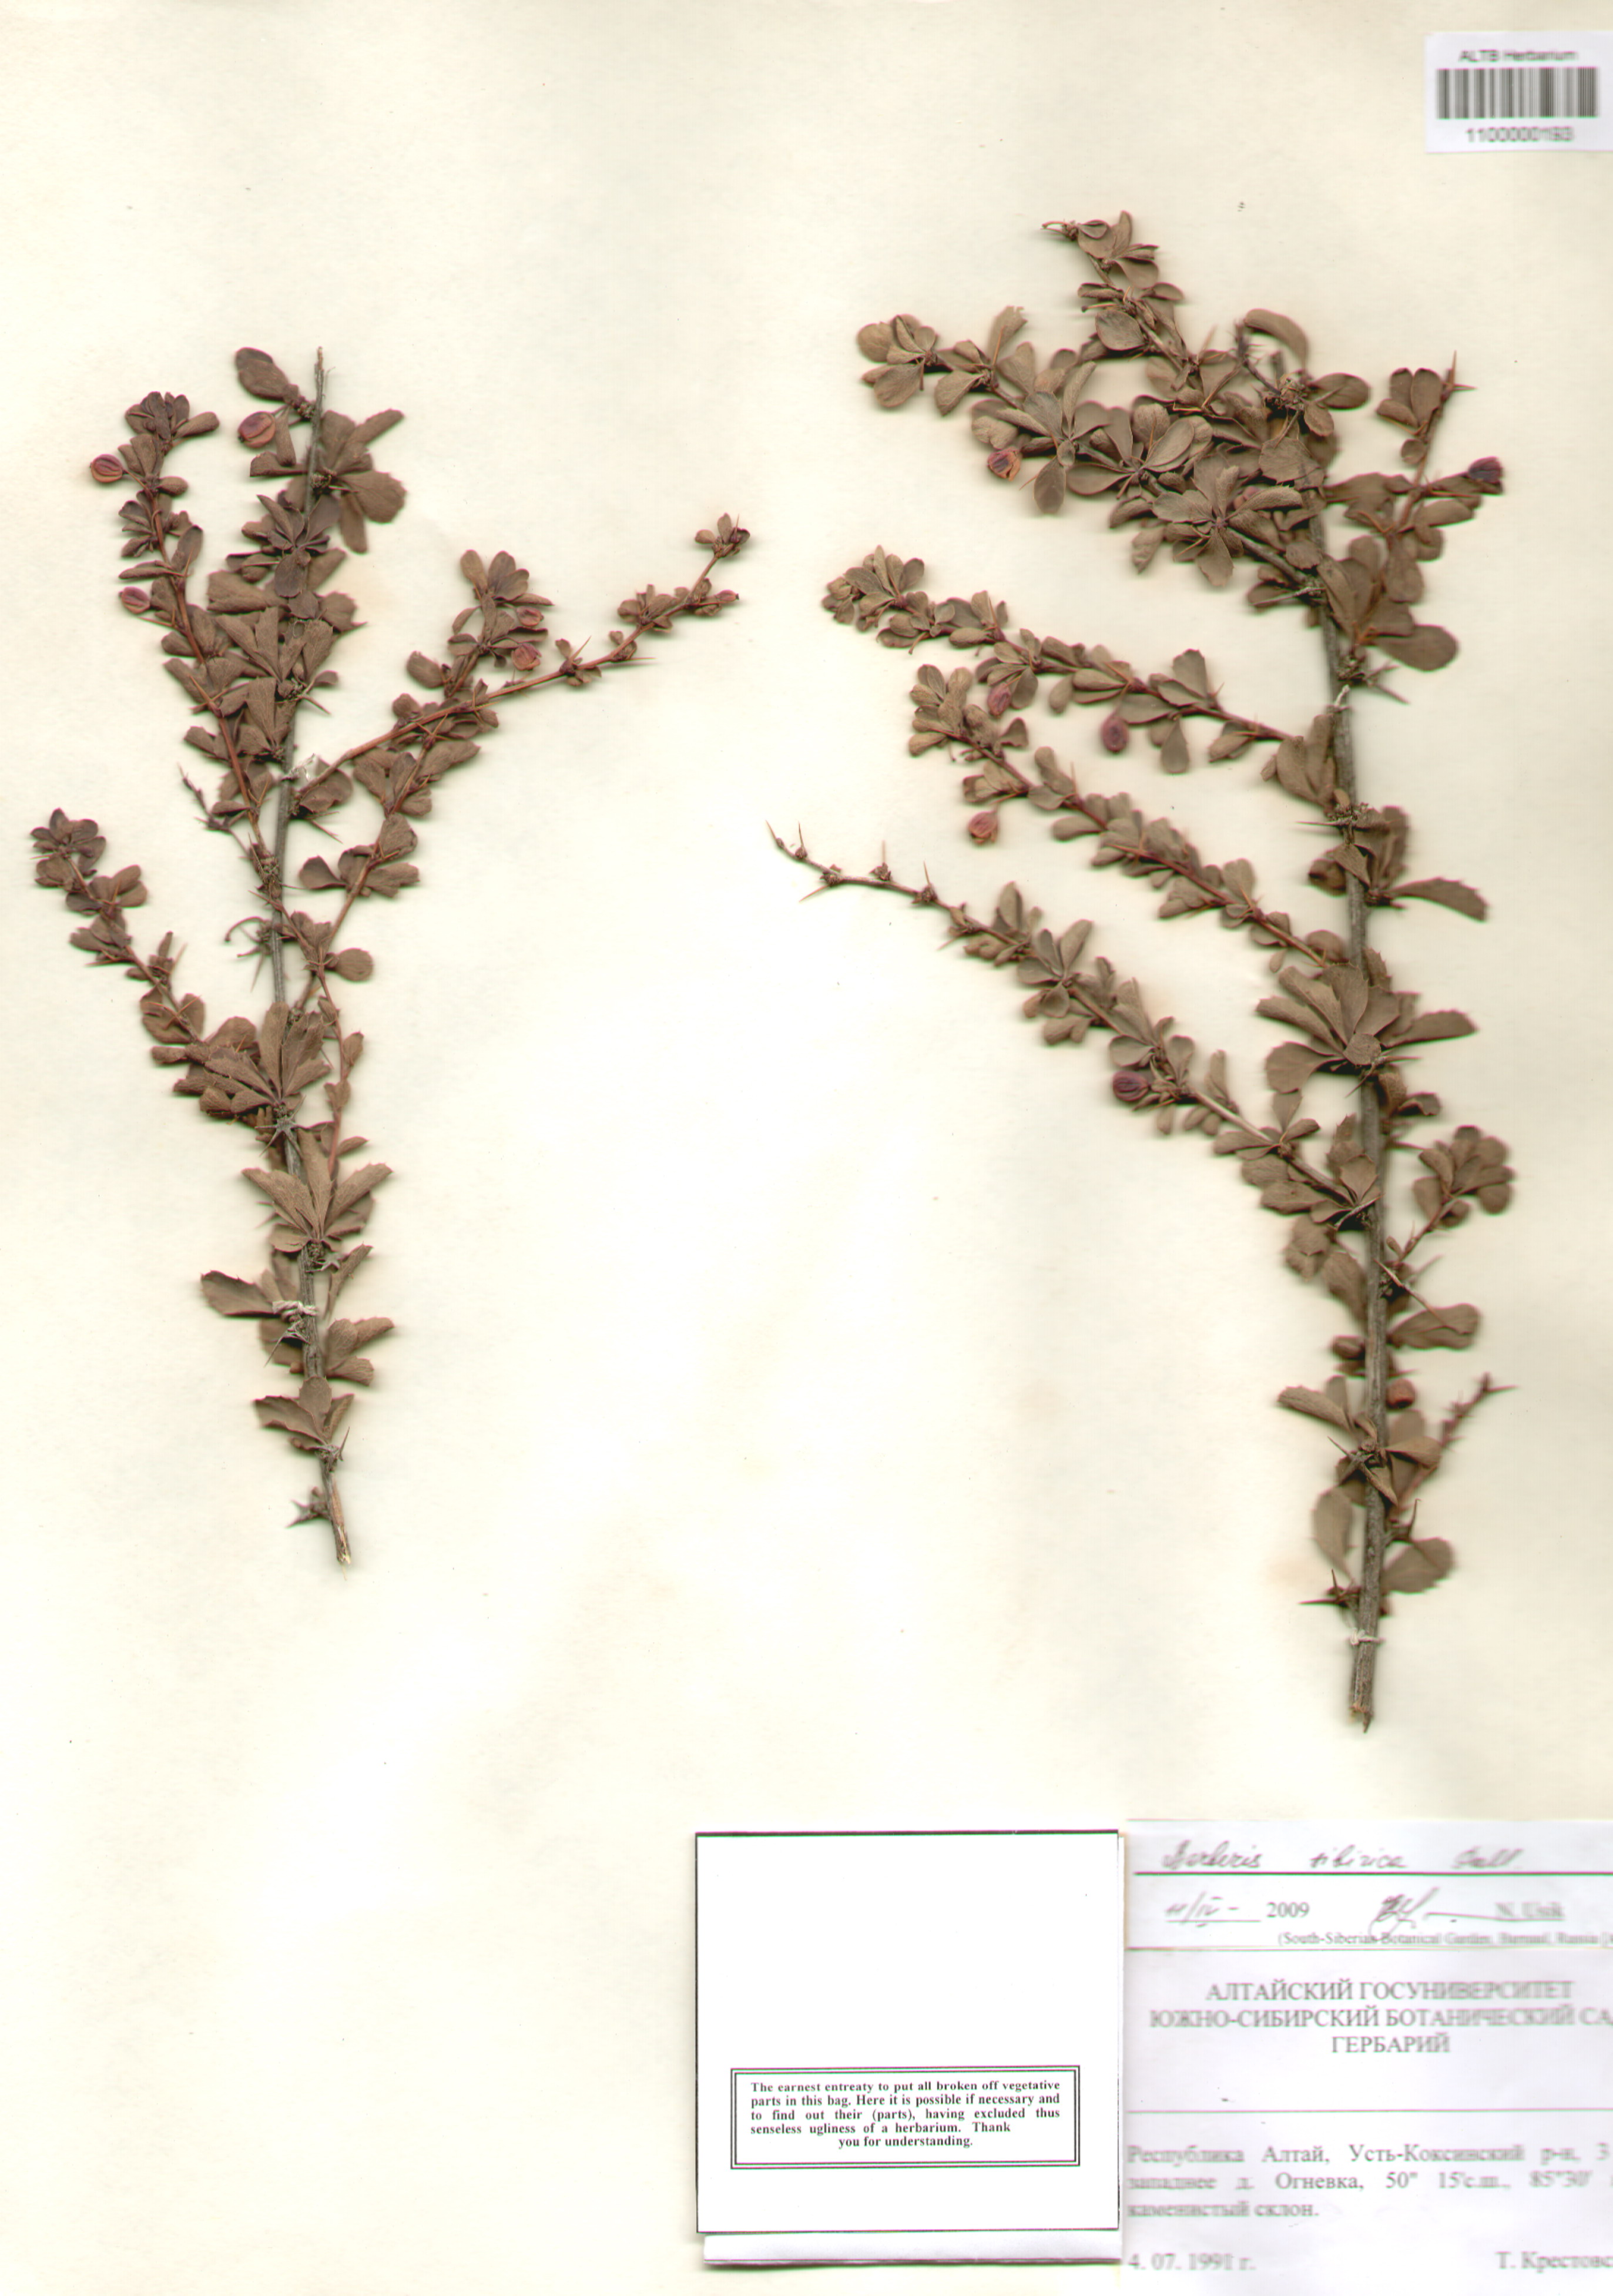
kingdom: Plantae
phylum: Tracheophyta
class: Magnoliopsida
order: Ranunculales
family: Berberidaceae
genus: Berberis
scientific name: Berberis sibirica
